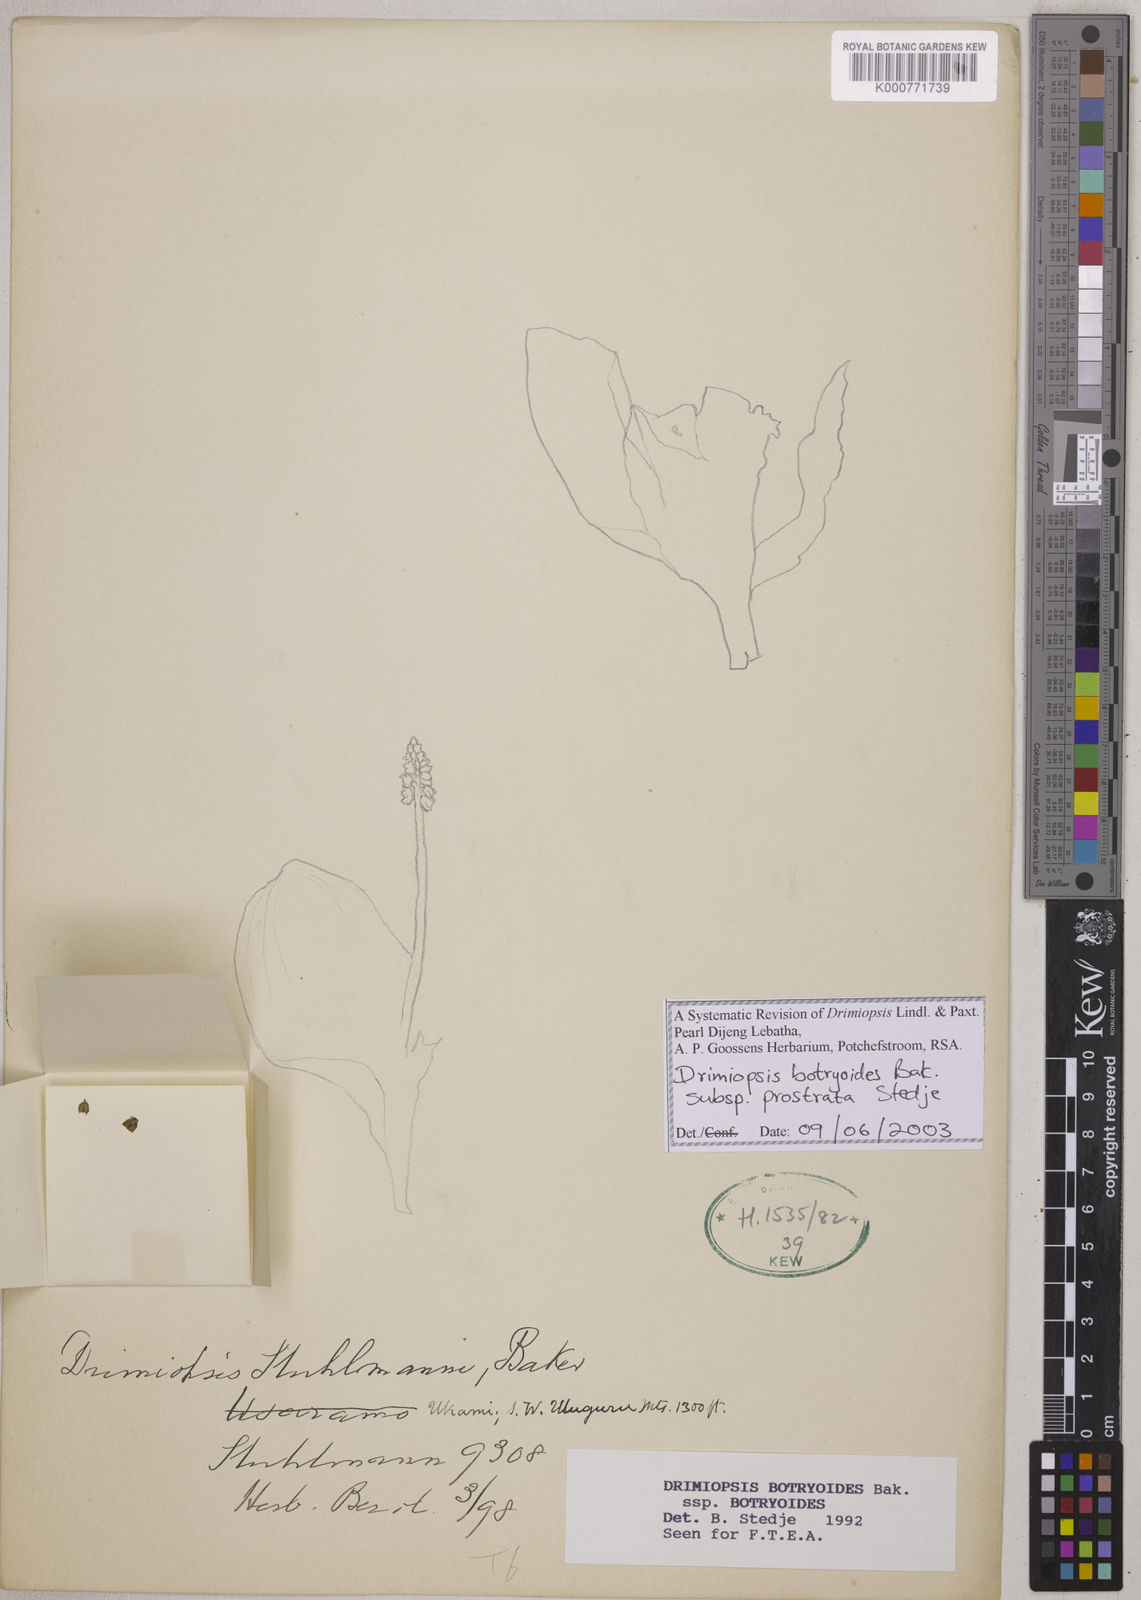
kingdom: Plantae
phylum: Tracheophyta
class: Liliopsida
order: Asparagales
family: Asparagaceae
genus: Drimiopsis
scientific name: Drimiopsis botryoides
